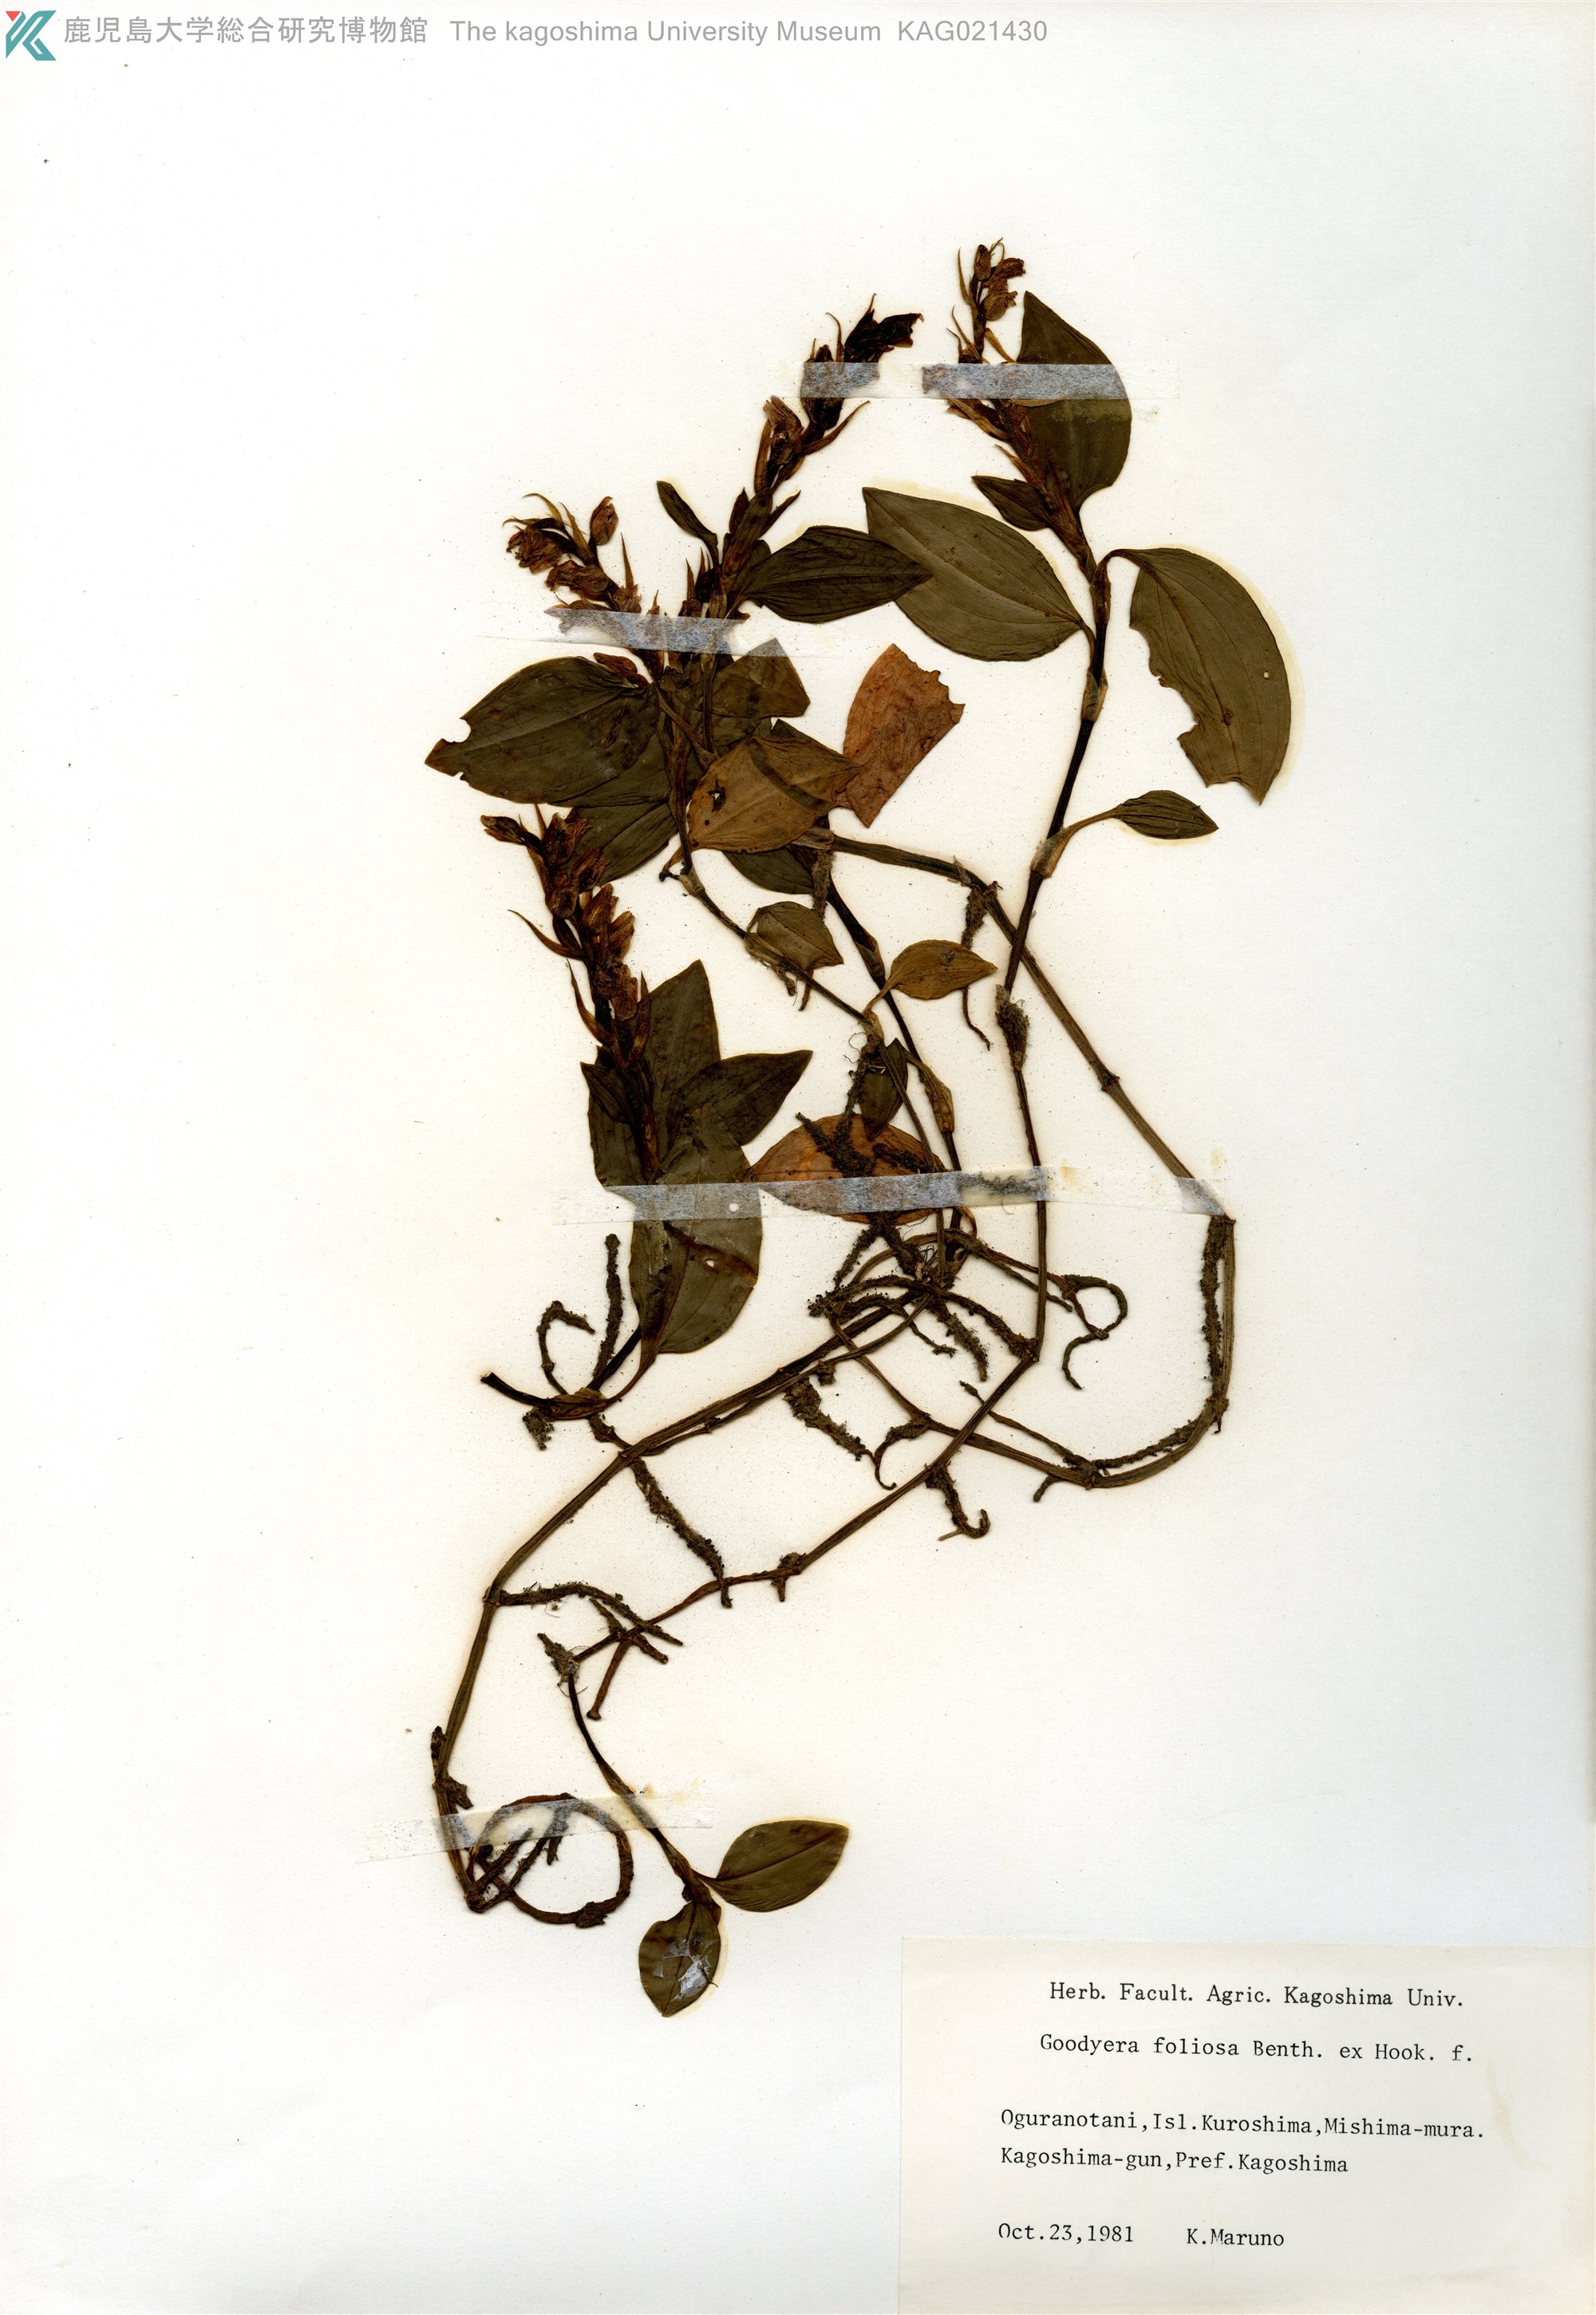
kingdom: Plantae
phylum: Tracheophyta
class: Liliopsida
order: Asparagales
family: Orchidaceae
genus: Goodyera
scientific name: Goodyera foliosa
